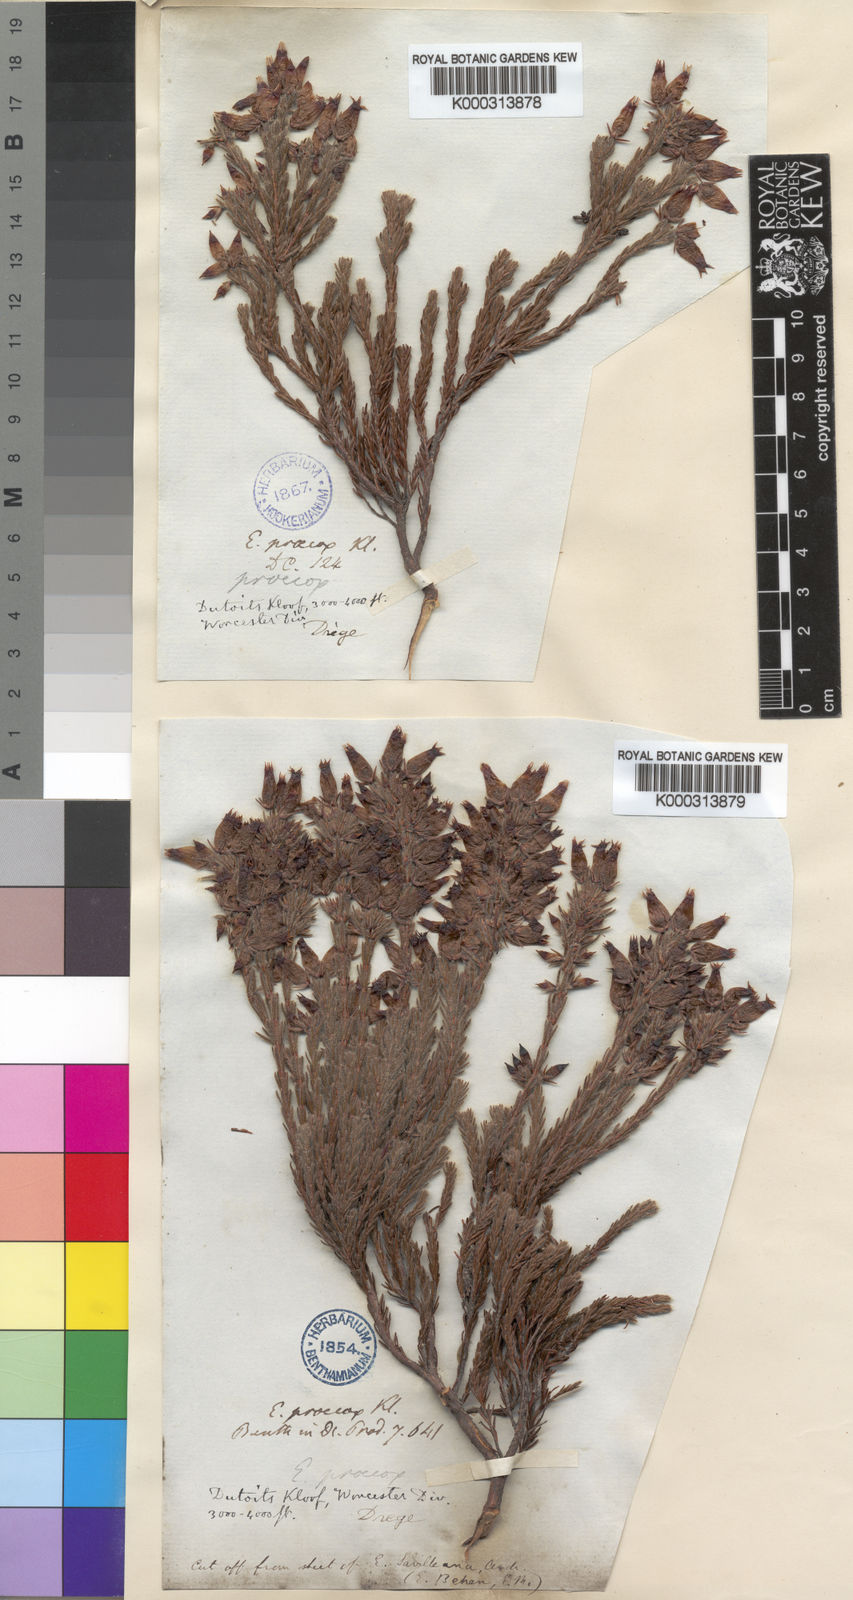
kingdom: Plantae
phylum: Tracheophyta
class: Magnoliopsida
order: Ericales
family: Ericaceae
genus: Erica
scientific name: Erica ventricosa
